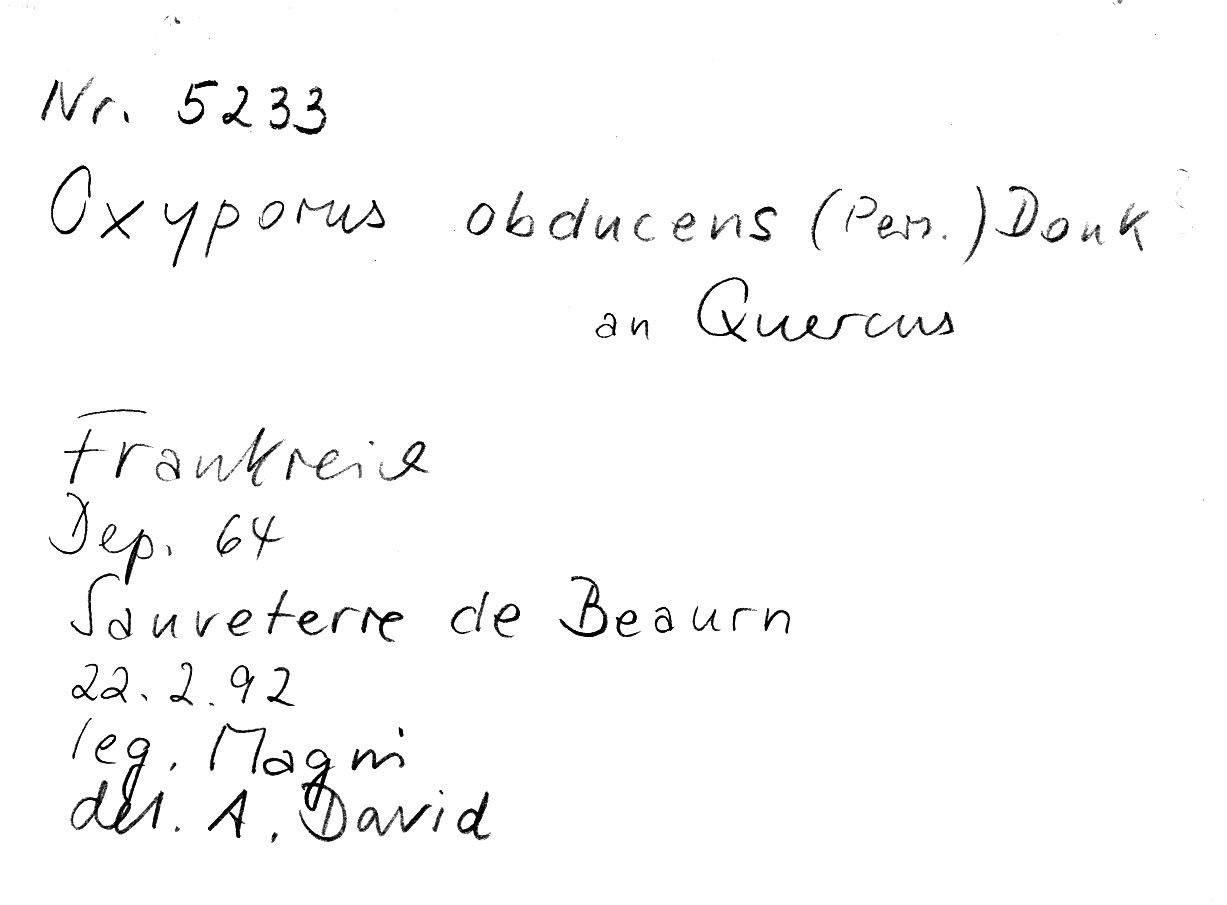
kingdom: Plantae
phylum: Tracheophyta
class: Magnoliopsida
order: Fagales
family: Fagaceae
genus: Quercus
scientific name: Quercus
